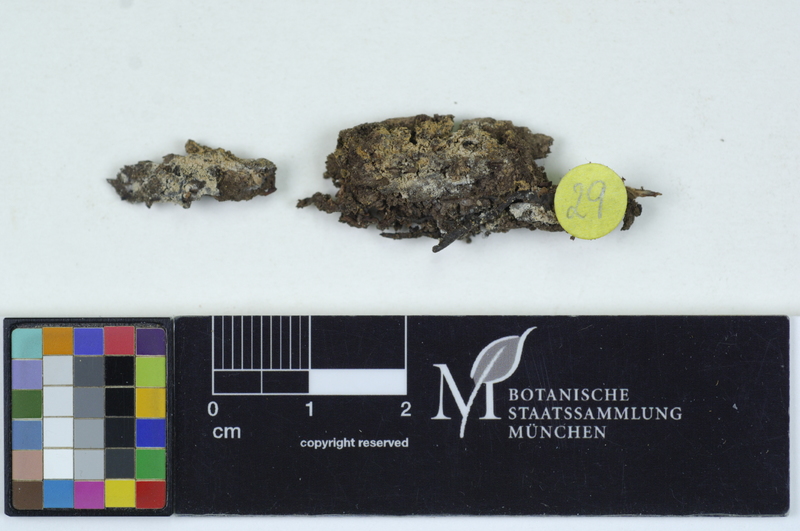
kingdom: Plantae
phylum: Tracheophyta
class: Magnoliopsida
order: Fagales
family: Fagaceae
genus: Fagus
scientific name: Fagus sylvatica
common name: Beech
